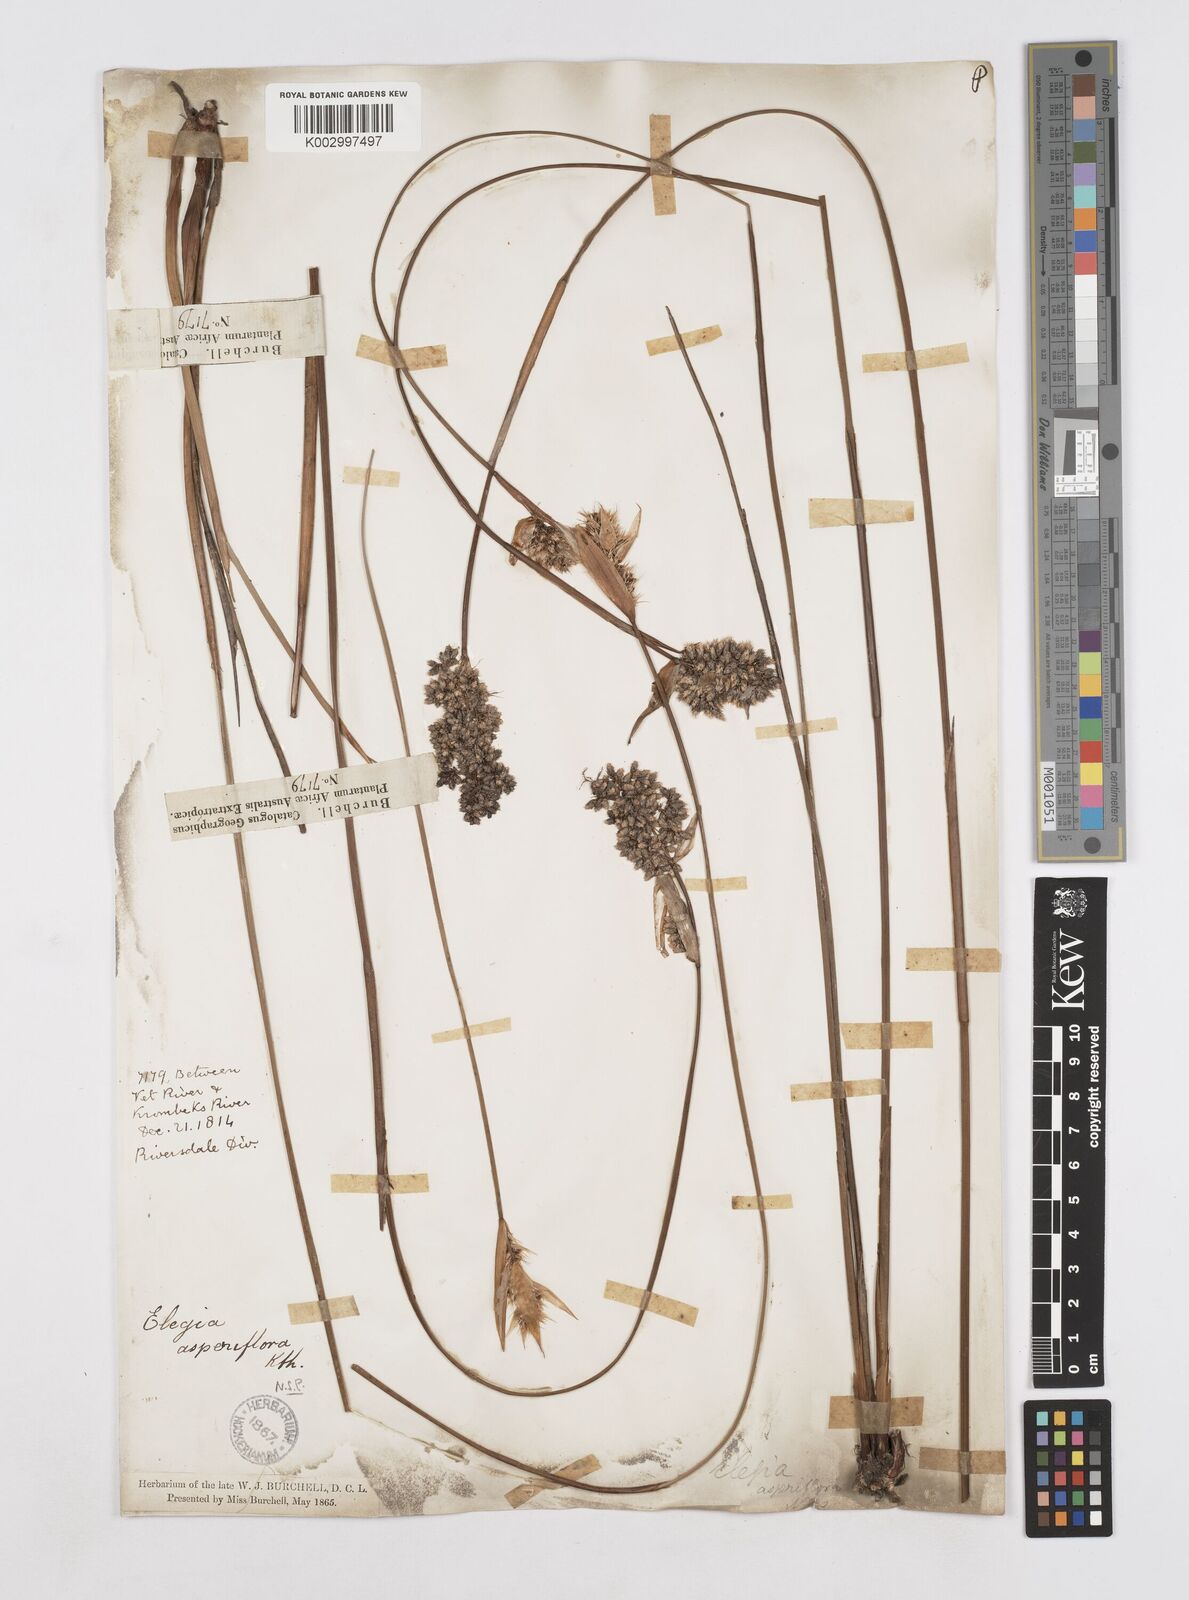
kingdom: Plantae
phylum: Tracheophyta
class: Liliopsida
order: Poales
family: Restionaceae
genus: Elegia
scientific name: Elegia asperiflora
